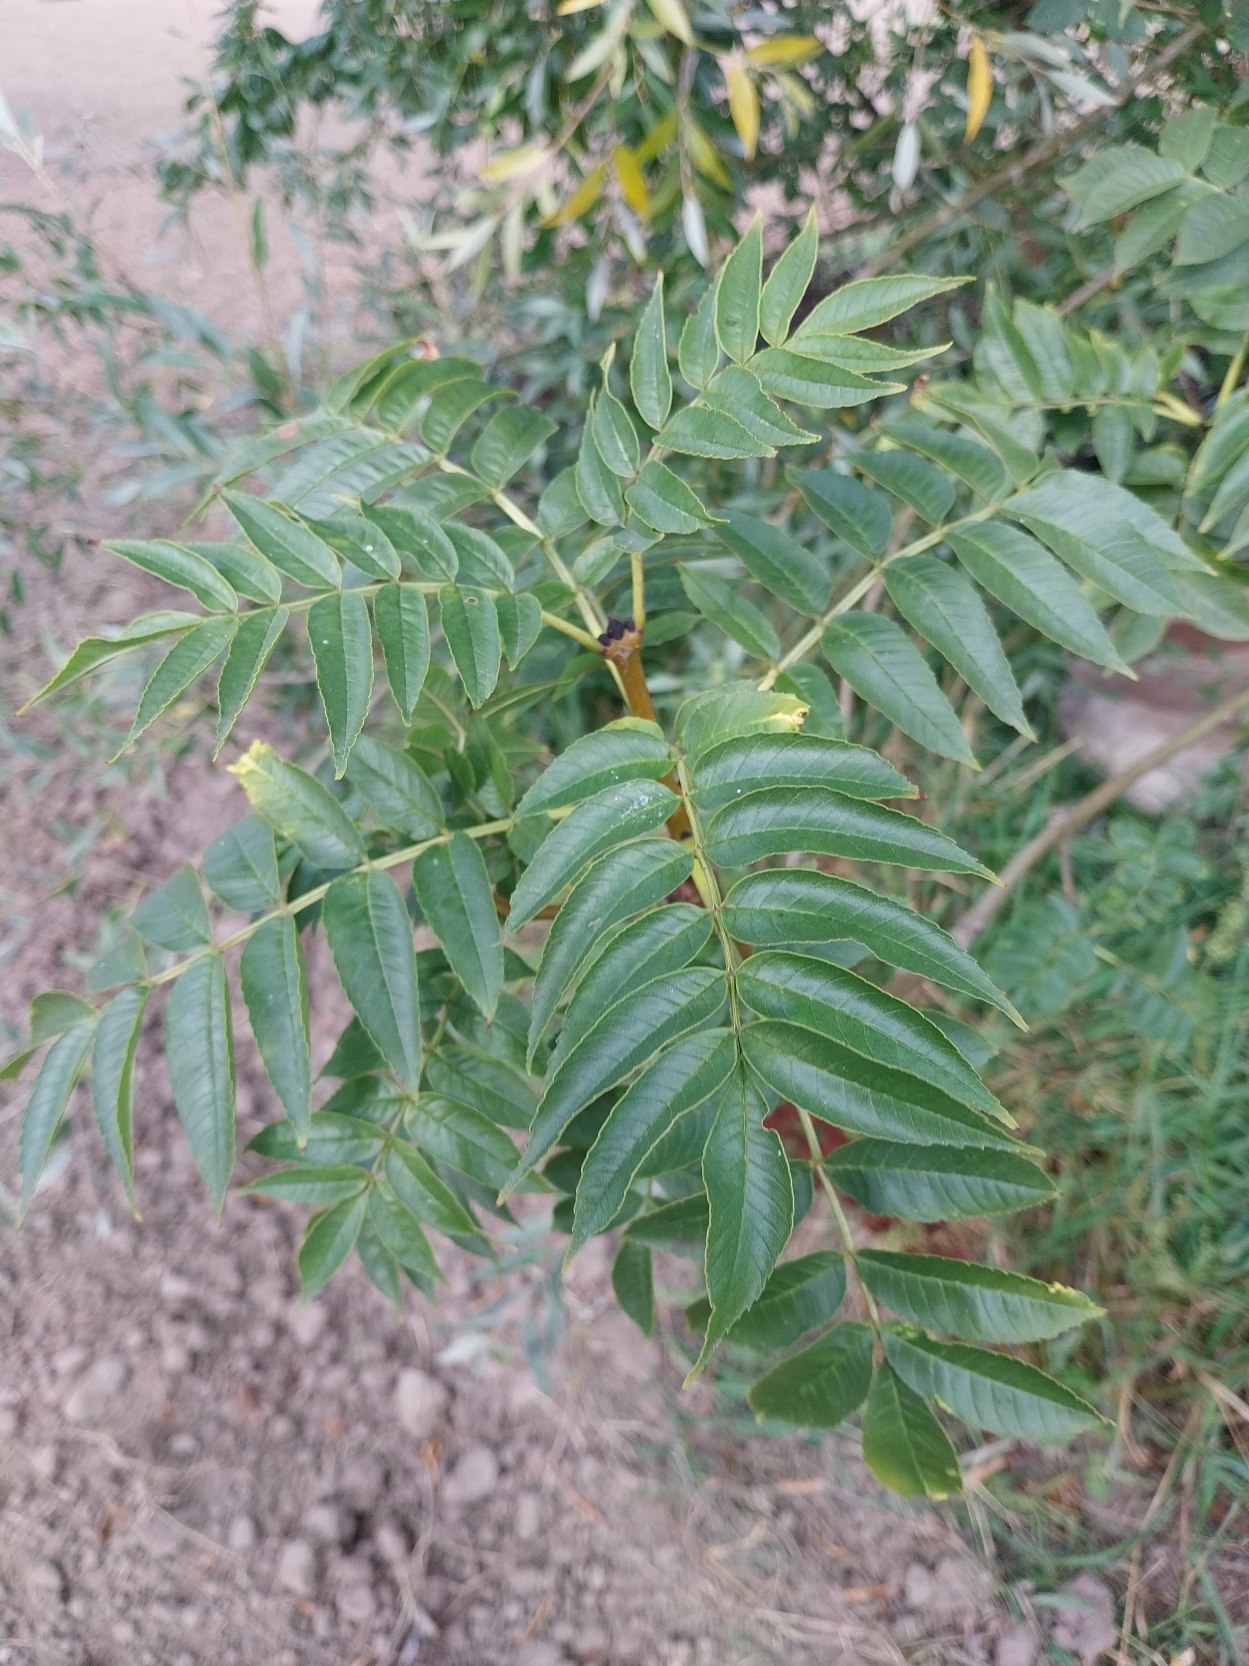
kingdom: Plantae
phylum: Tracheophyta
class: Magnoliopsida
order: Lamiales
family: Oleaceae
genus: Fraxinus
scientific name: Fraxinus excelsior
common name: Ask
